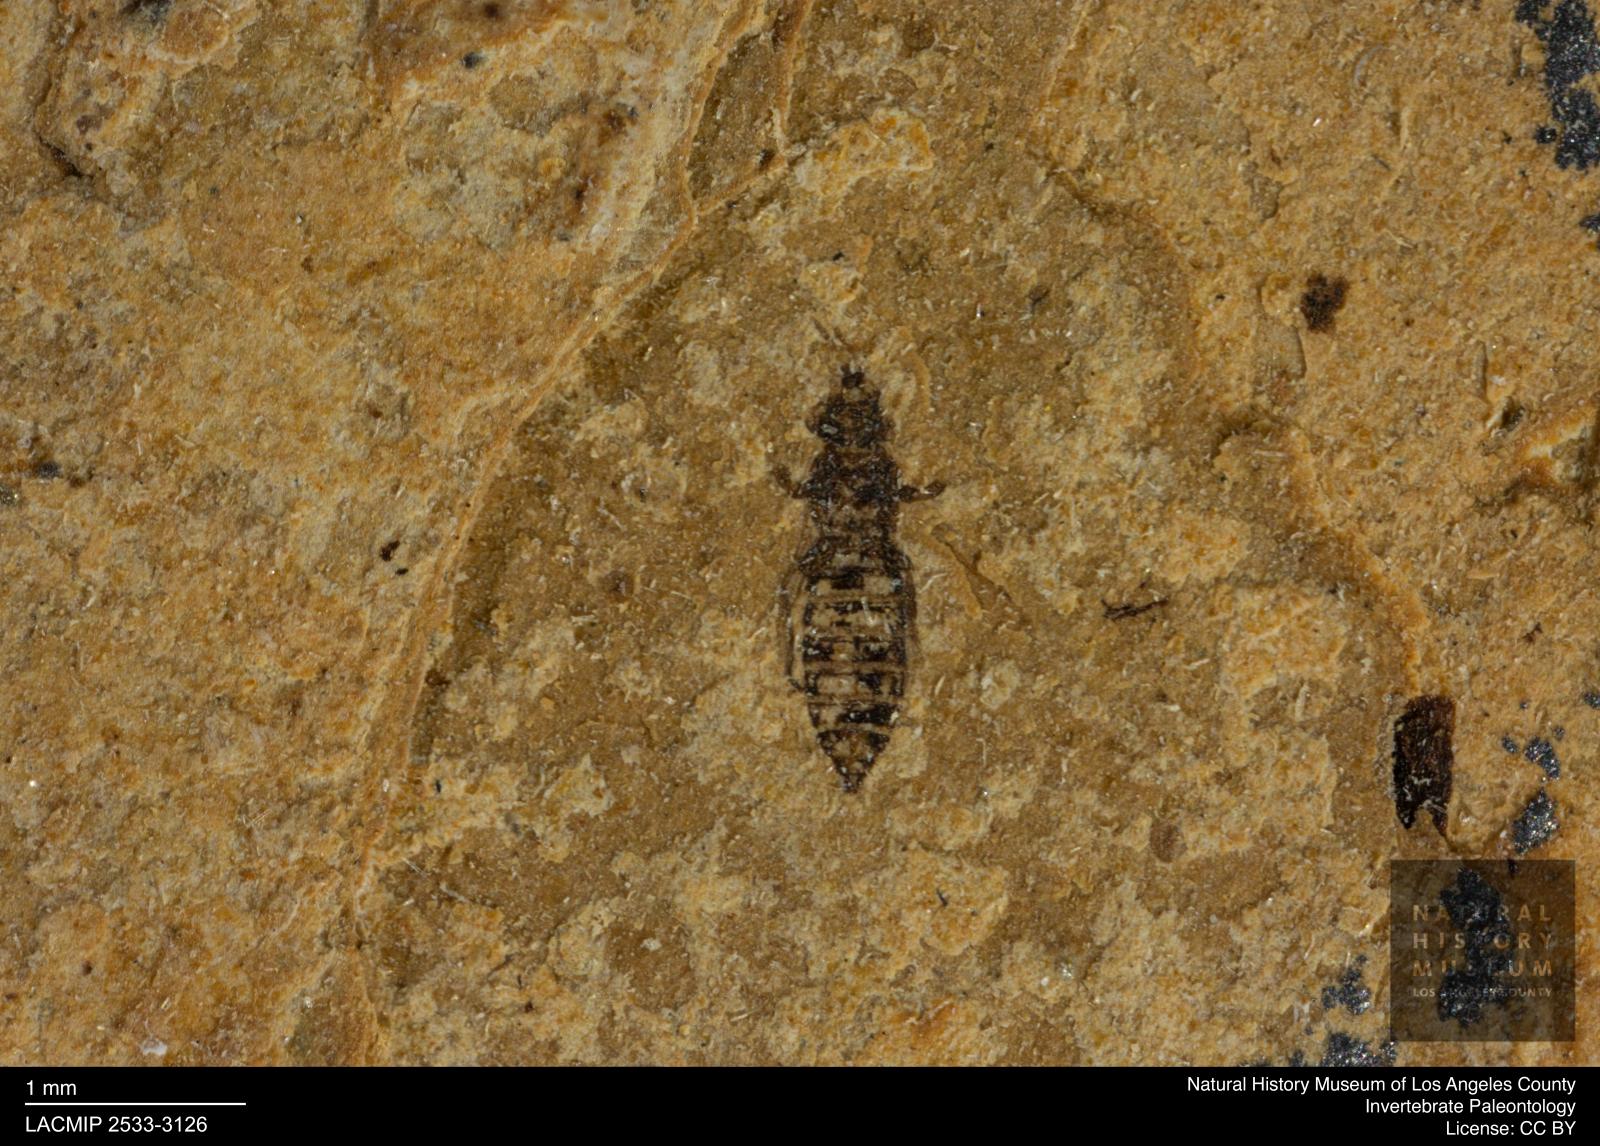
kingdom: Animalia
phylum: Arthropoda
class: Insecta
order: Thysanoptera
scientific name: Thysanoptera
